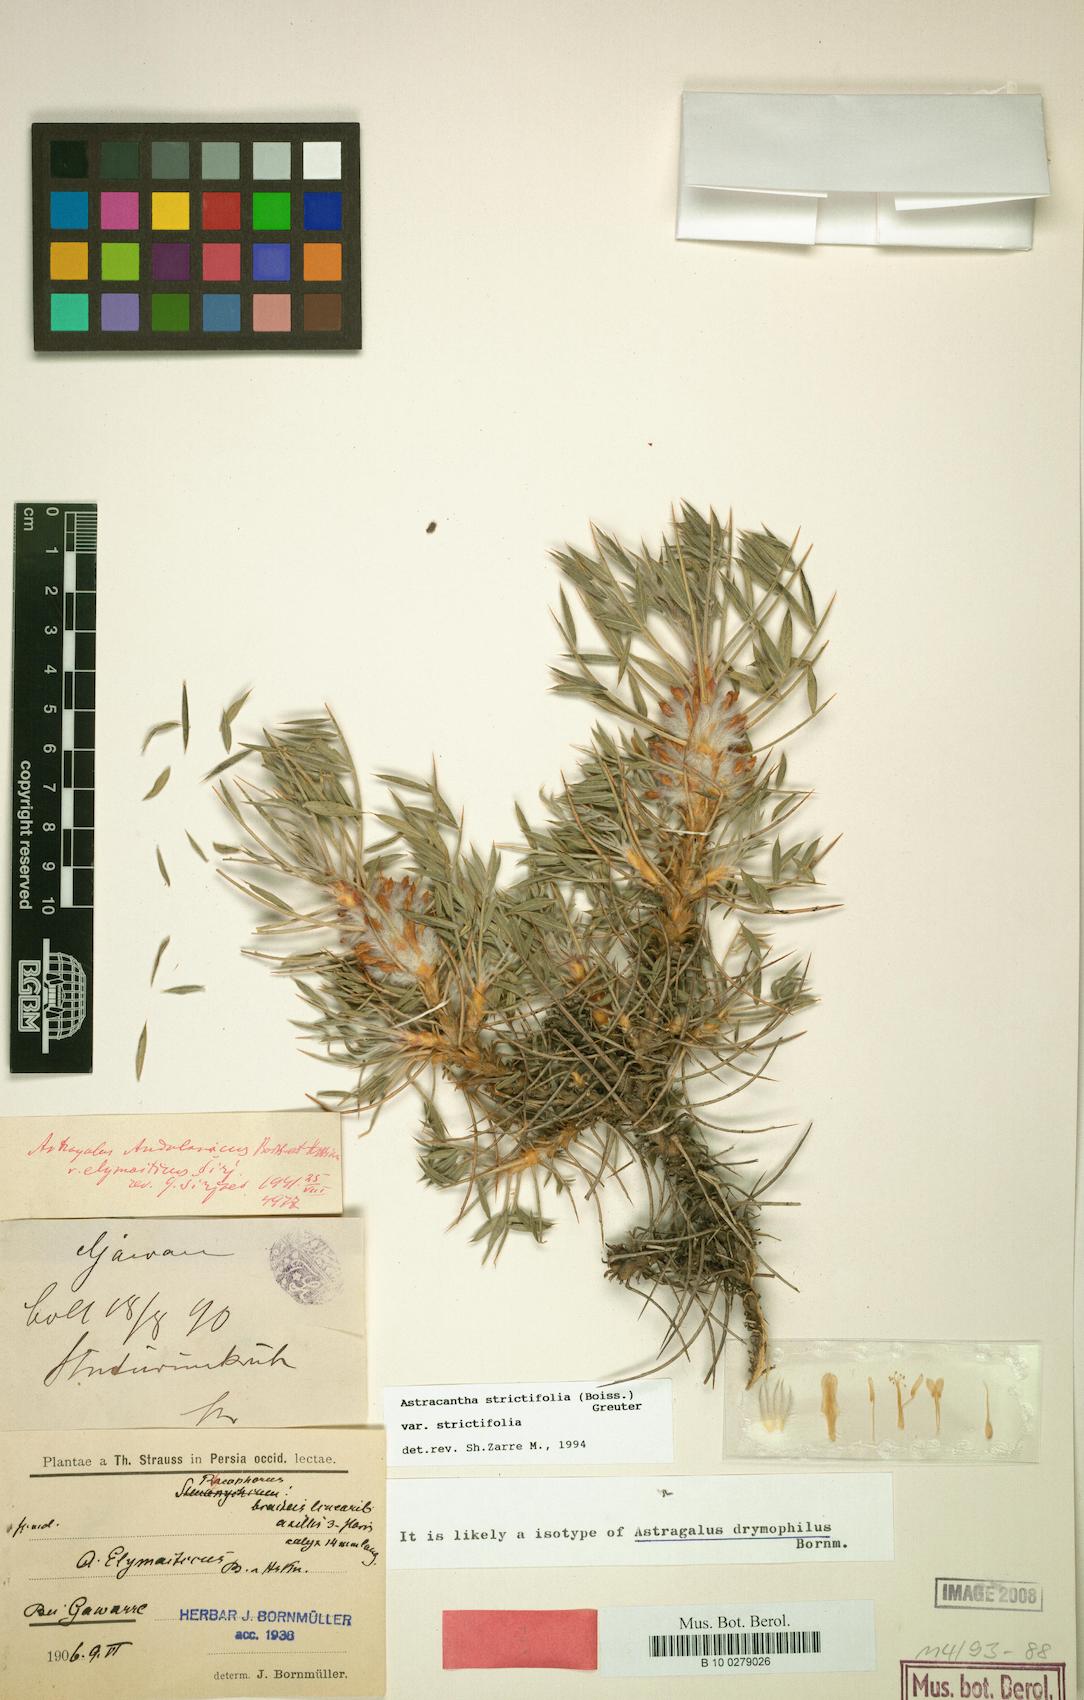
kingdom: Plantae
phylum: Tracheophyta
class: Magnoliopsida
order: Fabales
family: Fabaceae
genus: Astragalus
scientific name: Astragalus strictifolius
